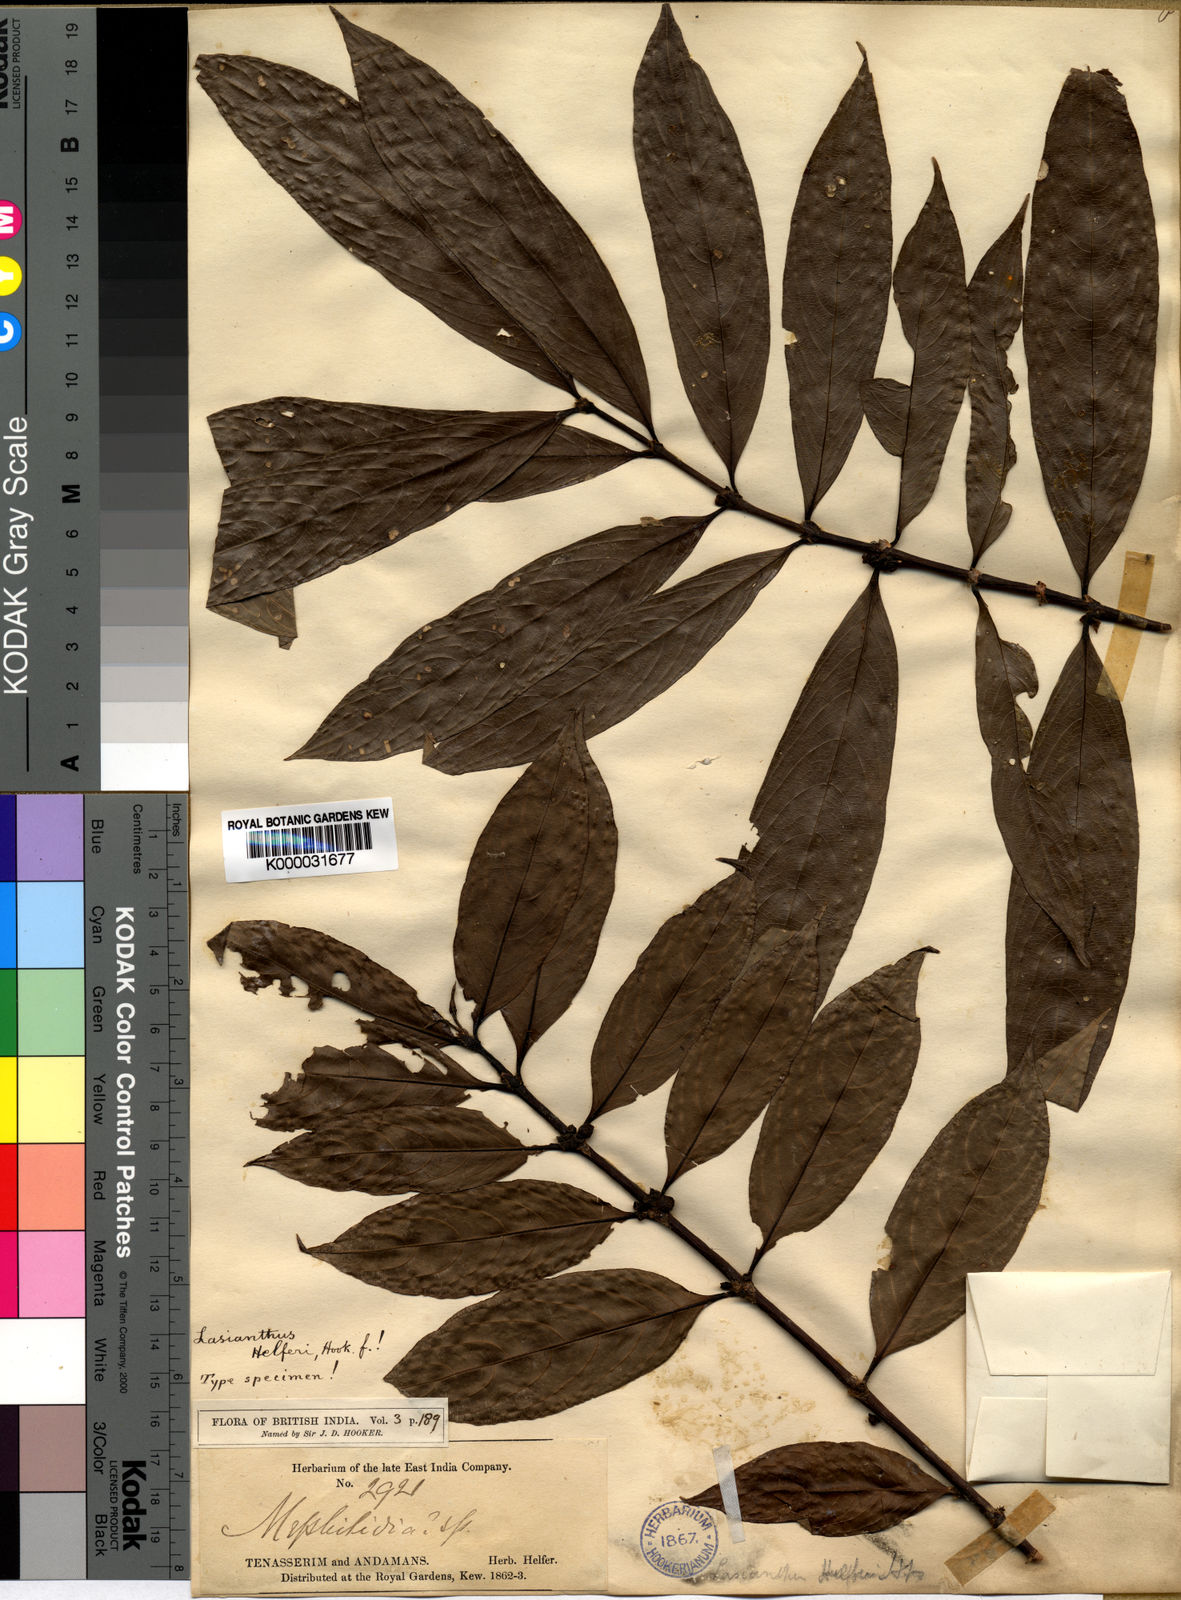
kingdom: Plantae
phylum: Tracheophyta
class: Magnoliopsida
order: Gentianales
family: Rubiaceae
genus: Lasianthus
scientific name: Lasianthus helferi
